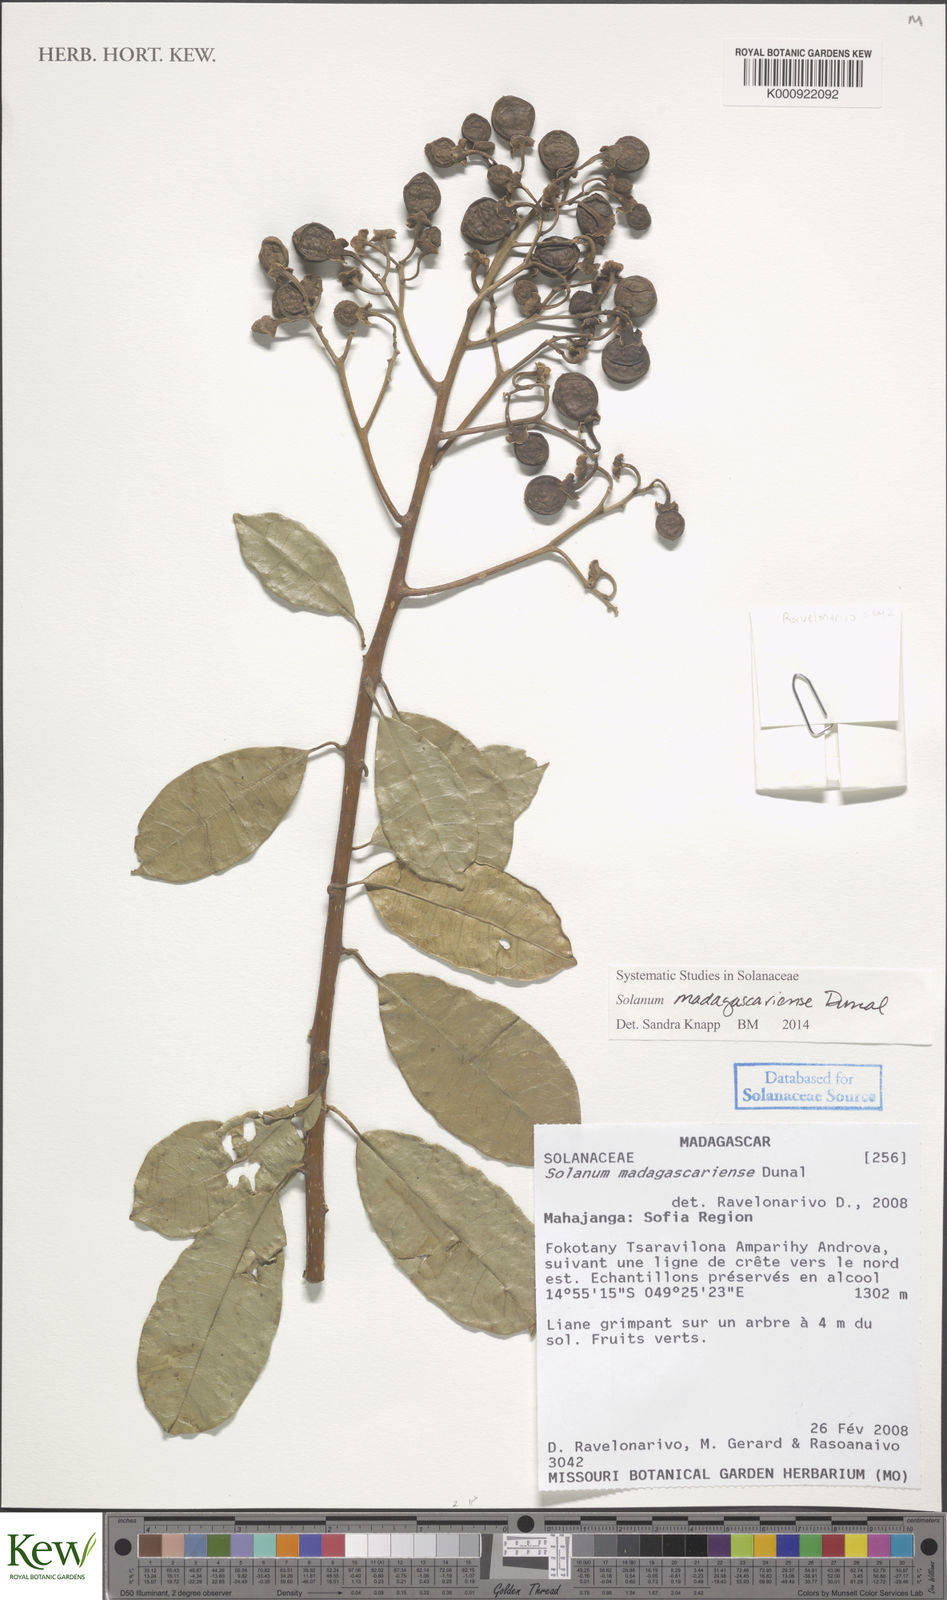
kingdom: Plantae
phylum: Tracheophyta
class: Magnoliopsida
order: Solanales
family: Solanaceae
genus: Solanum
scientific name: Solanum madagascariense
